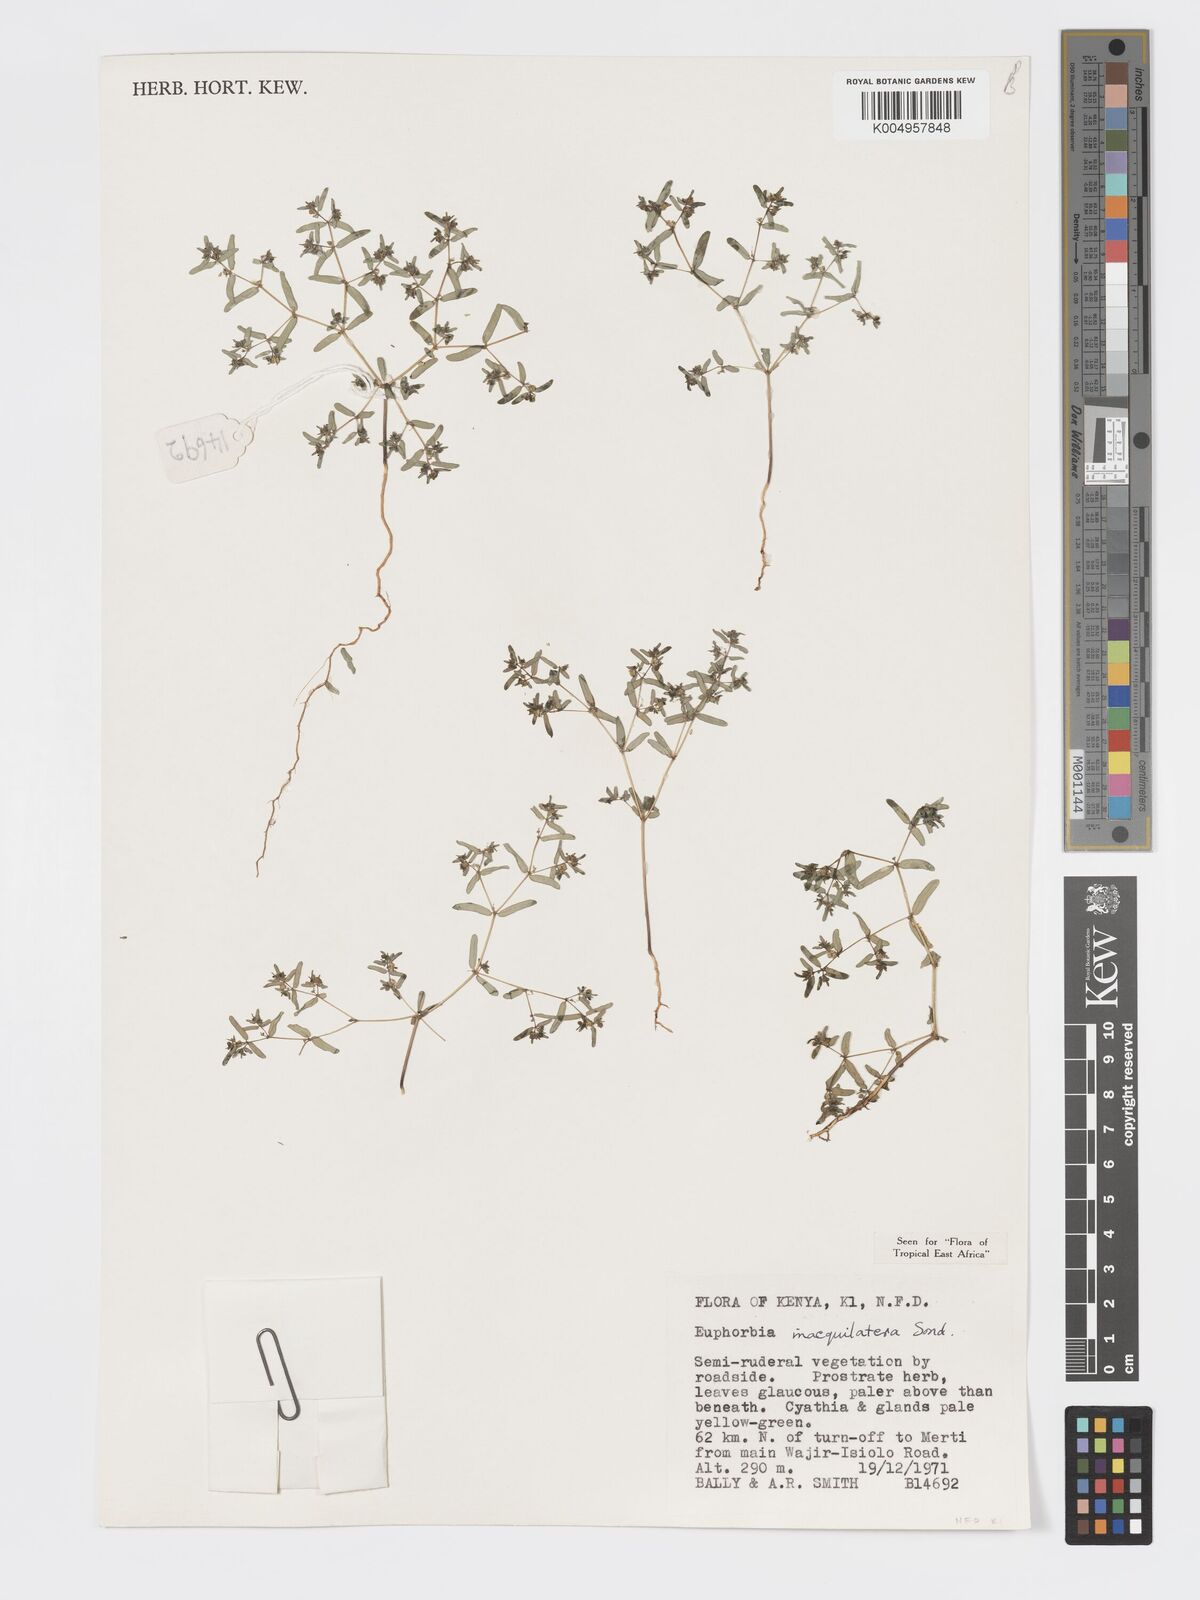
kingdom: Plantae
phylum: Tracheophyta
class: Magnoliopsida
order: Malpighiales
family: Euphorbiaceae
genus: Euphorbia
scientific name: Euphorbia inaequilatera
